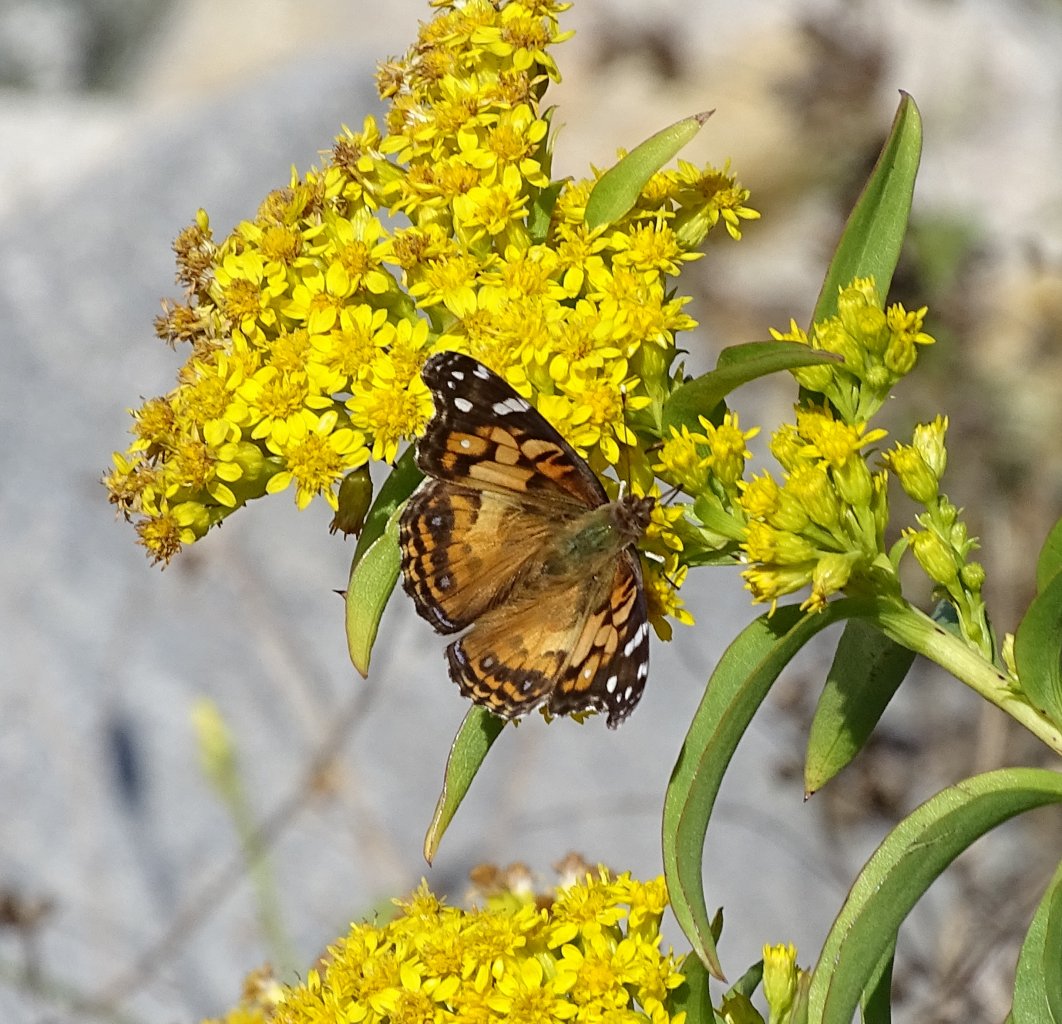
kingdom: Animalia
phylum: Arthropoda
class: Insecta
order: Lepidoptera
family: Nymphalidae
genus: Vanessa
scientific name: Vanessa virginiensis
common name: American Lady
